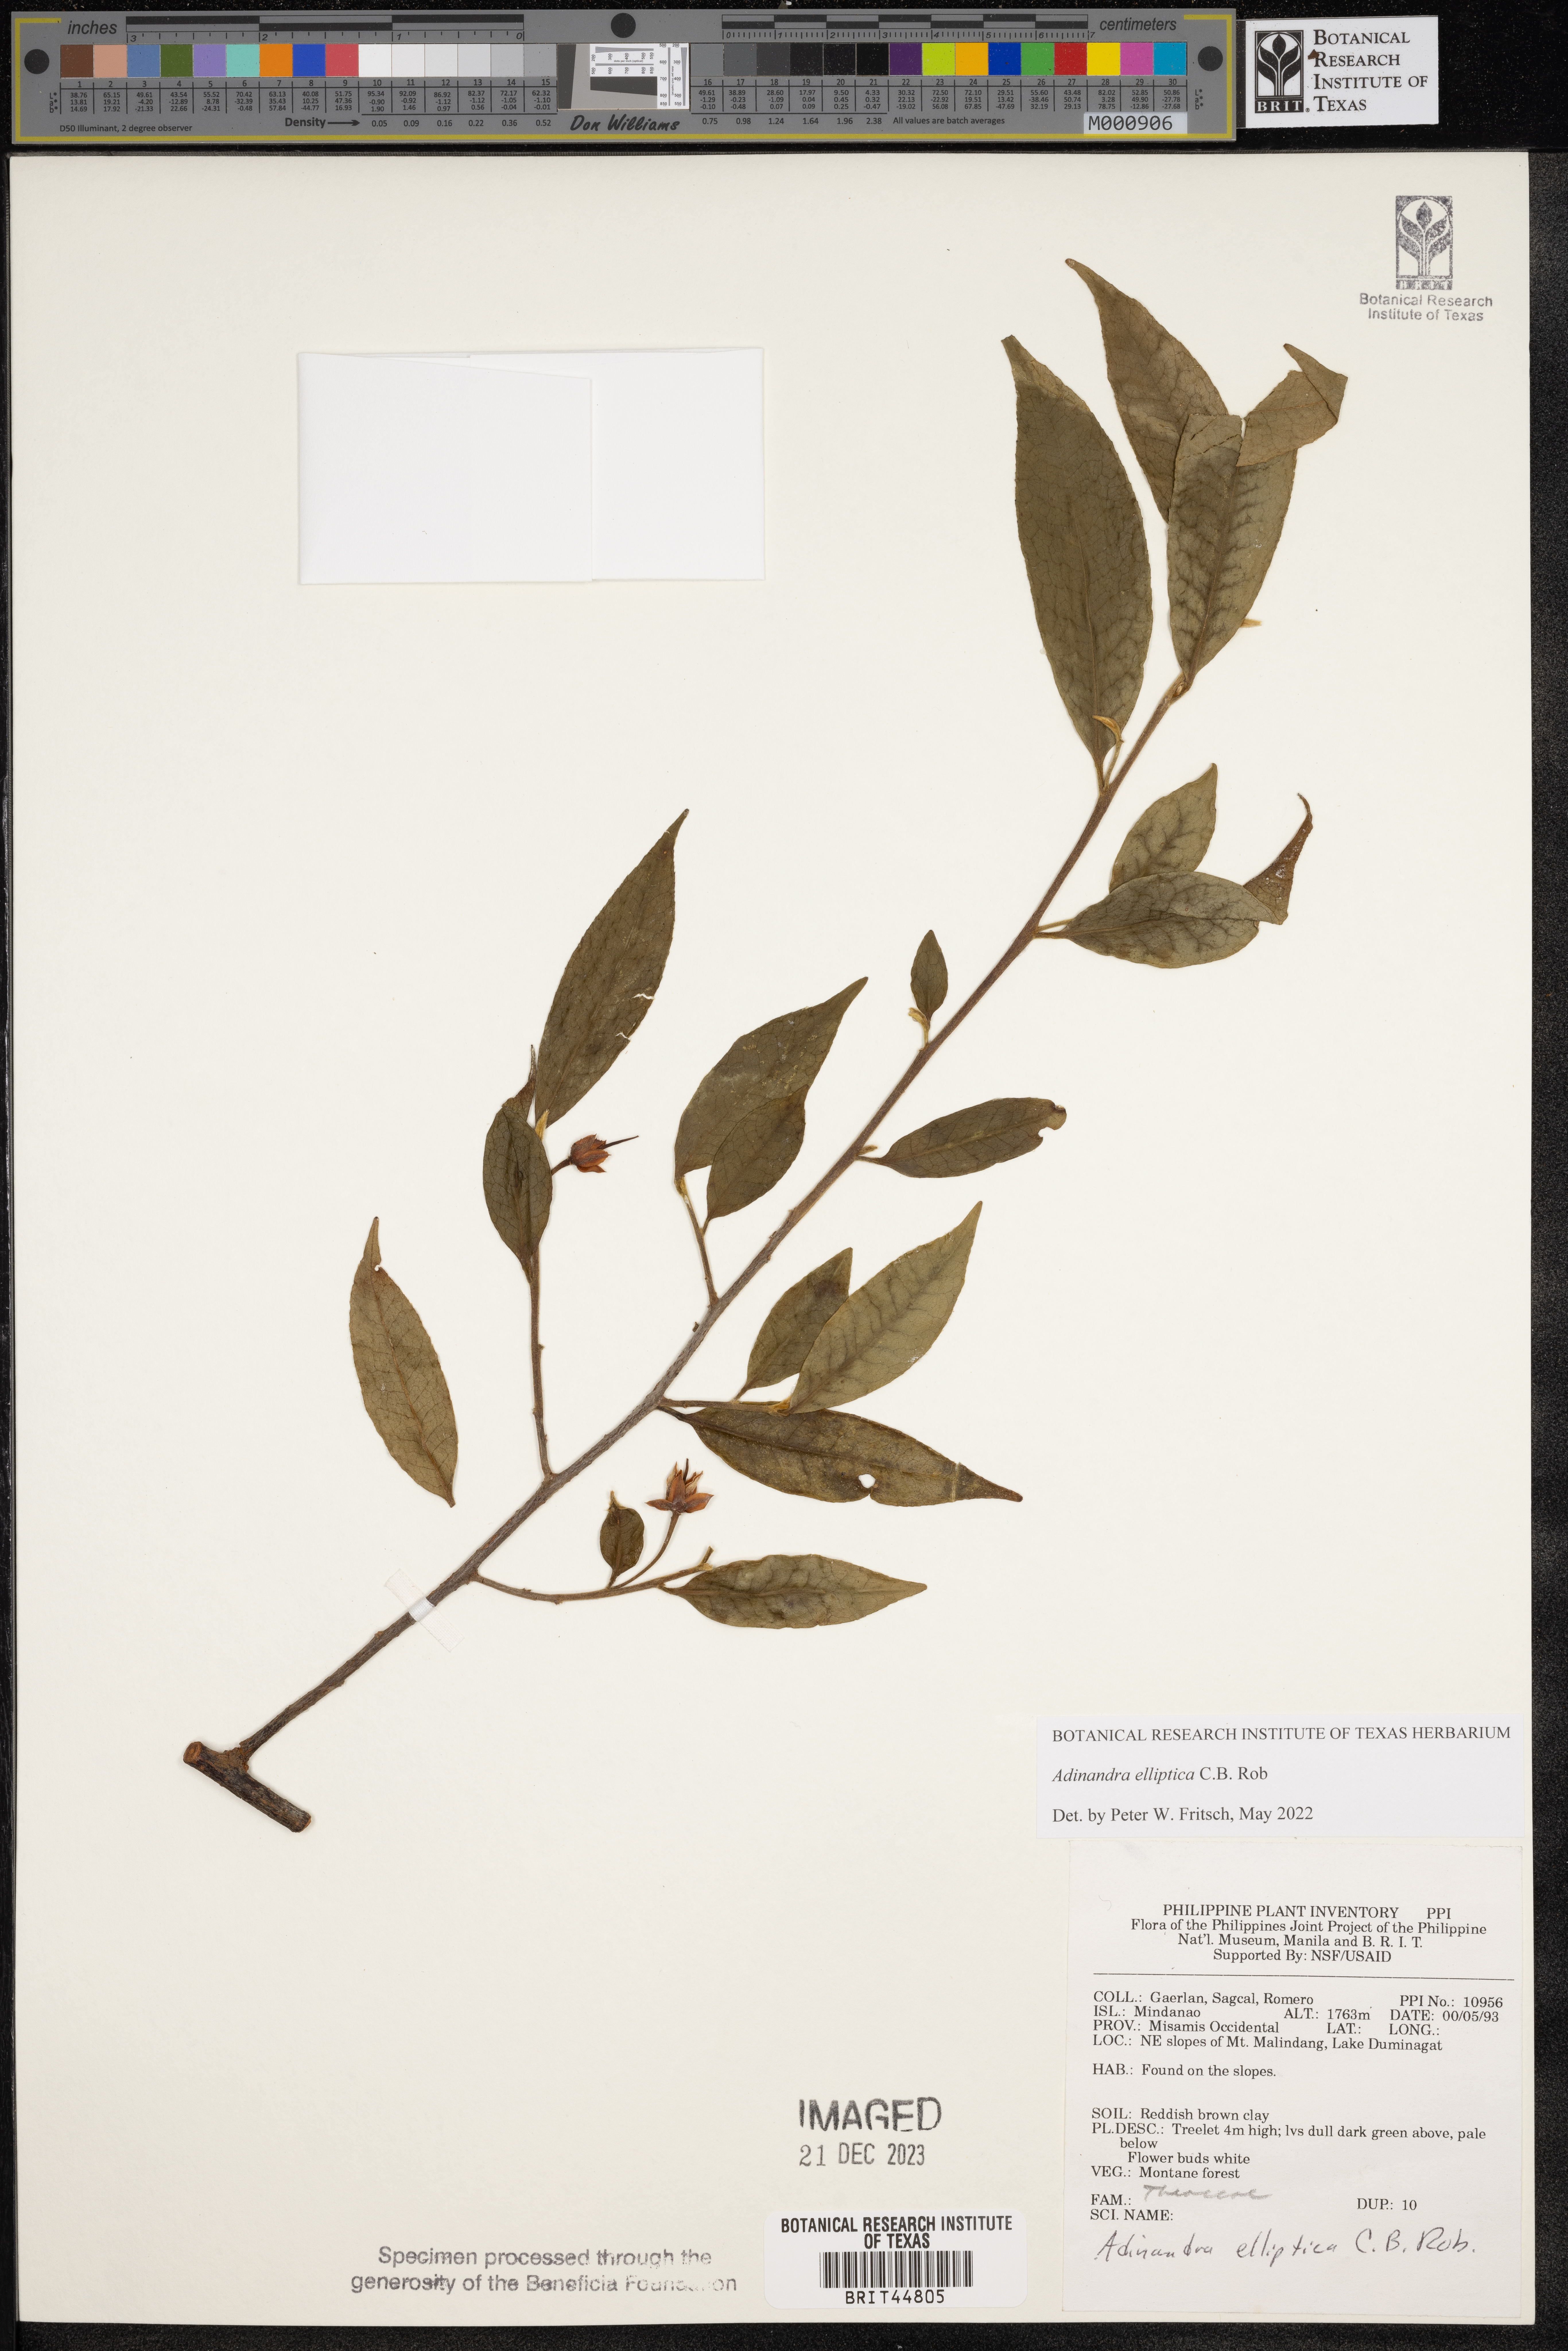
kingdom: Plantae
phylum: Tracheophyta
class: Magnoliopsida
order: Ericales
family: Pentaphylacaceae
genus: Adinandra
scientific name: Adinandra elliptica
